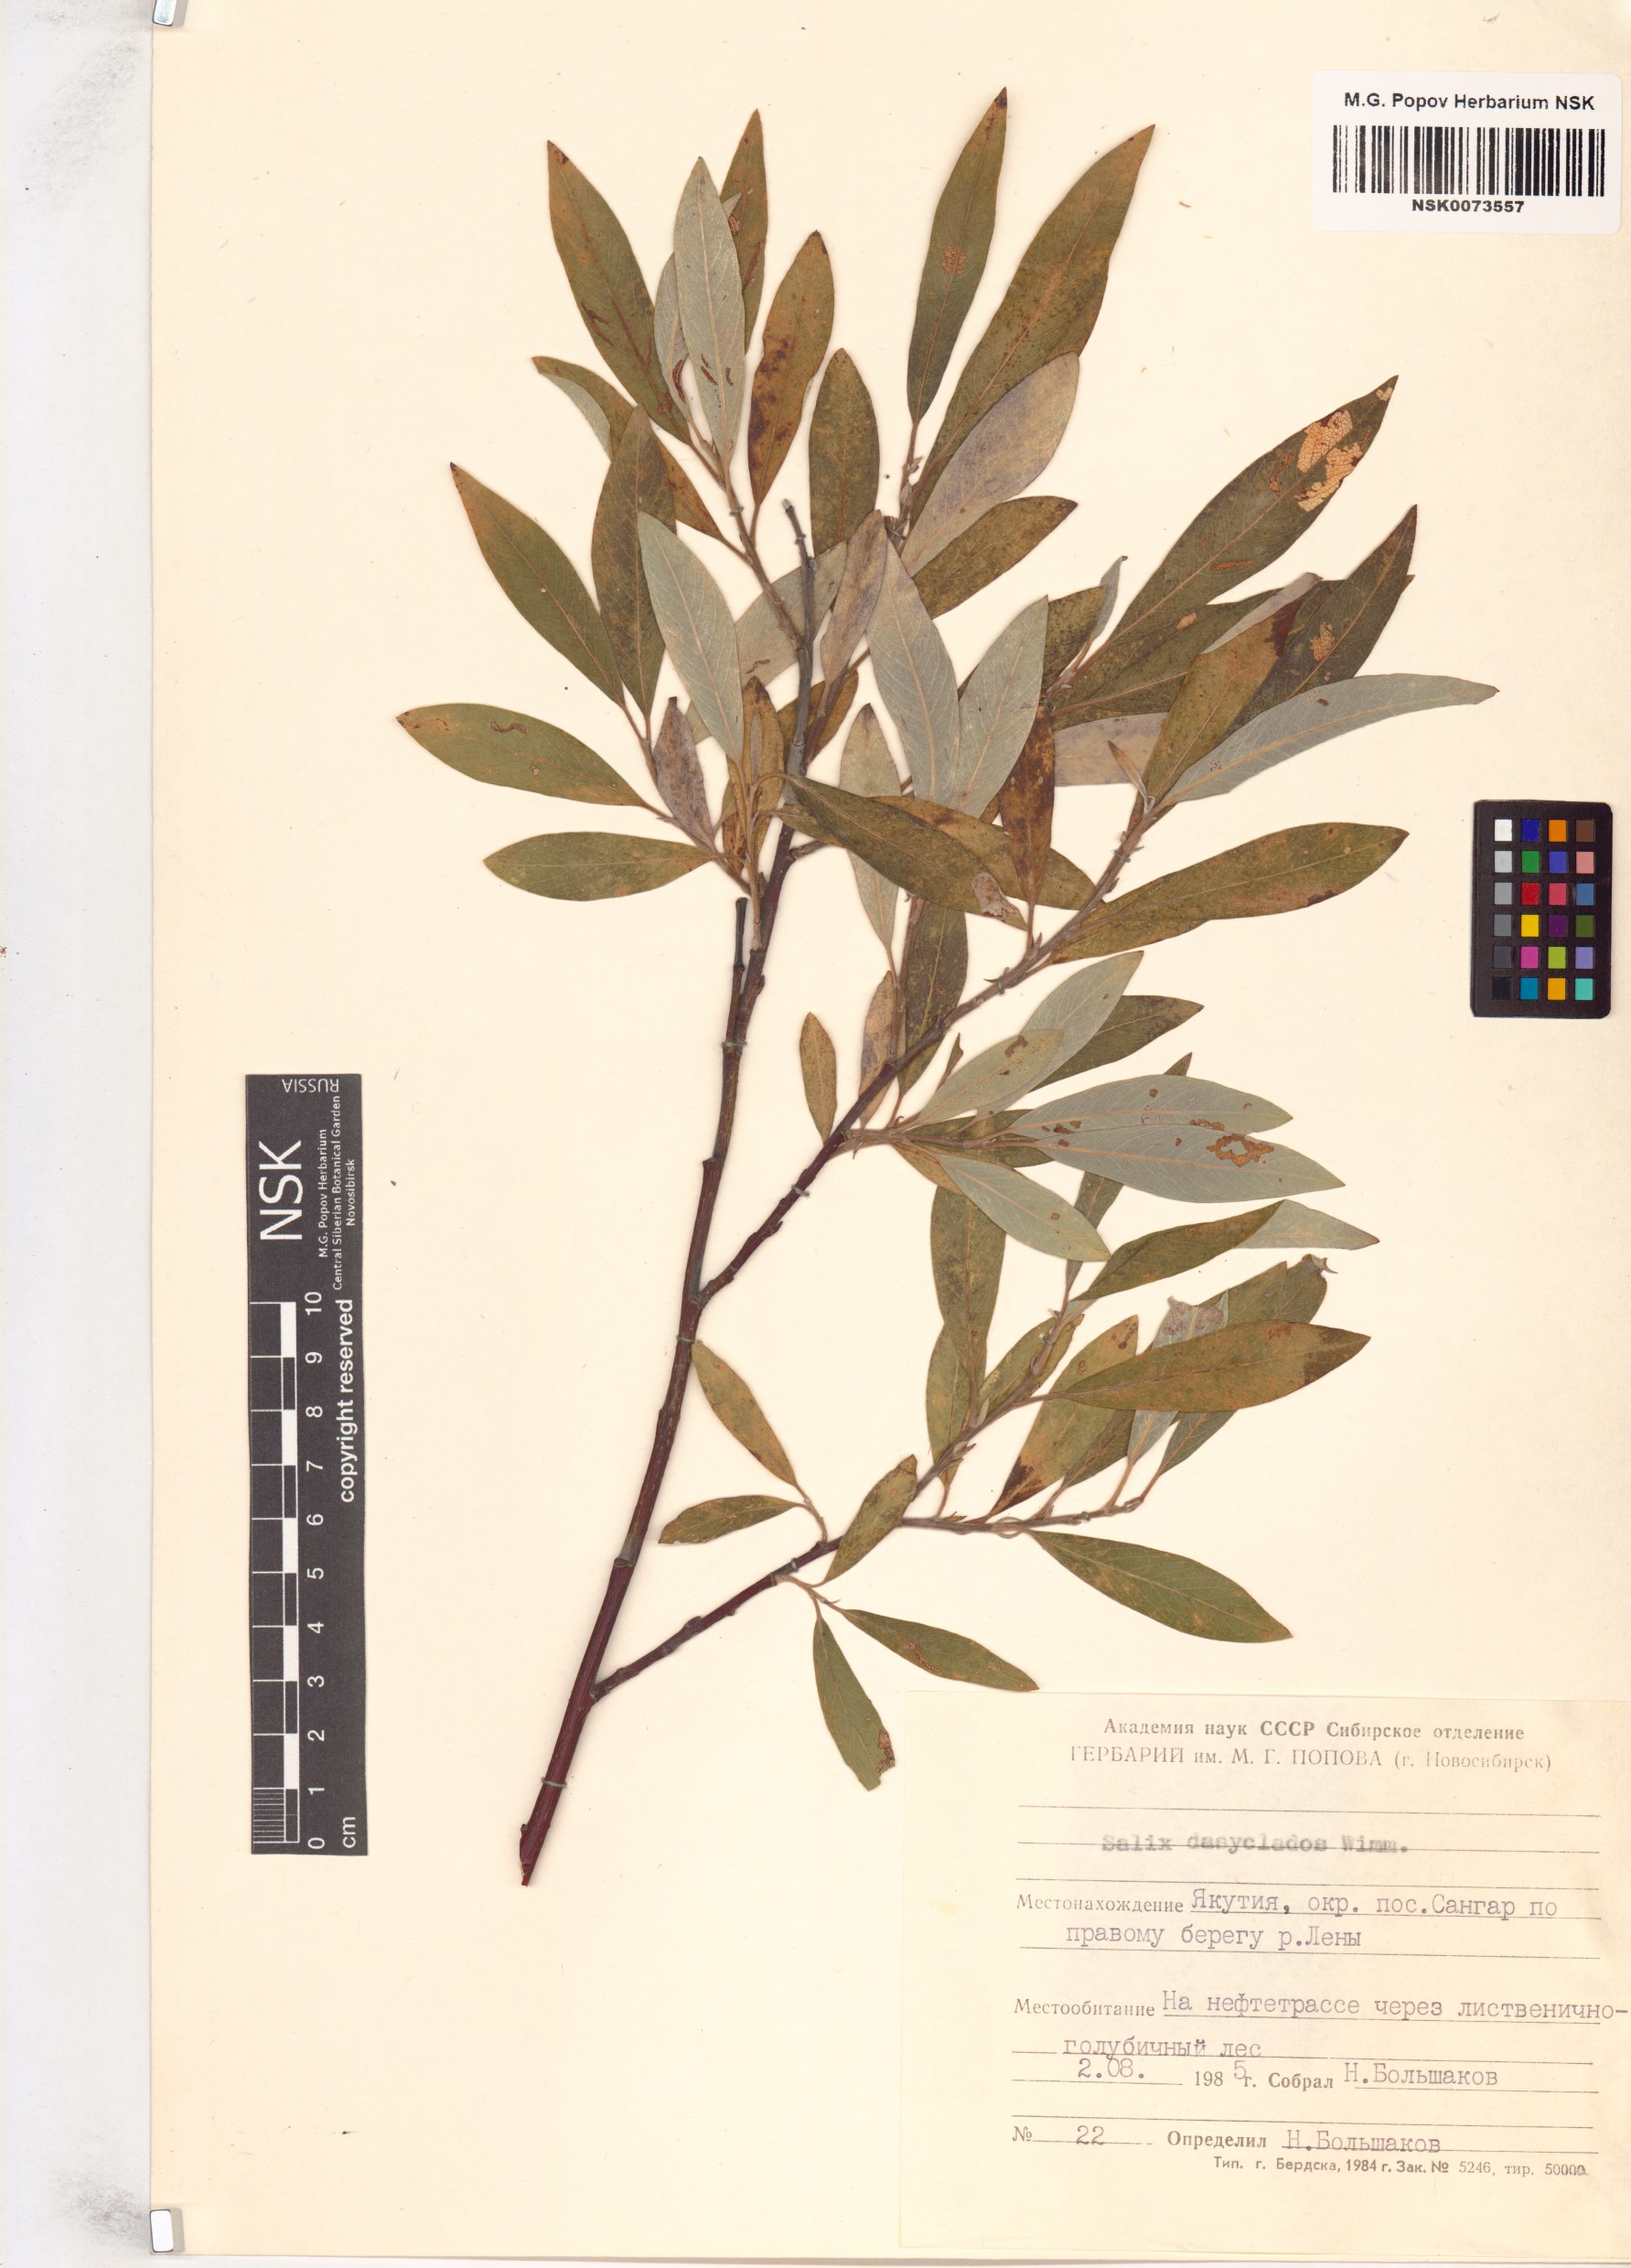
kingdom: Plantae
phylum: Tracheophyta
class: Magnoliopsida
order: Malpighiales
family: Salicaceae
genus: Salix
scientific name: Salix gmelinii
